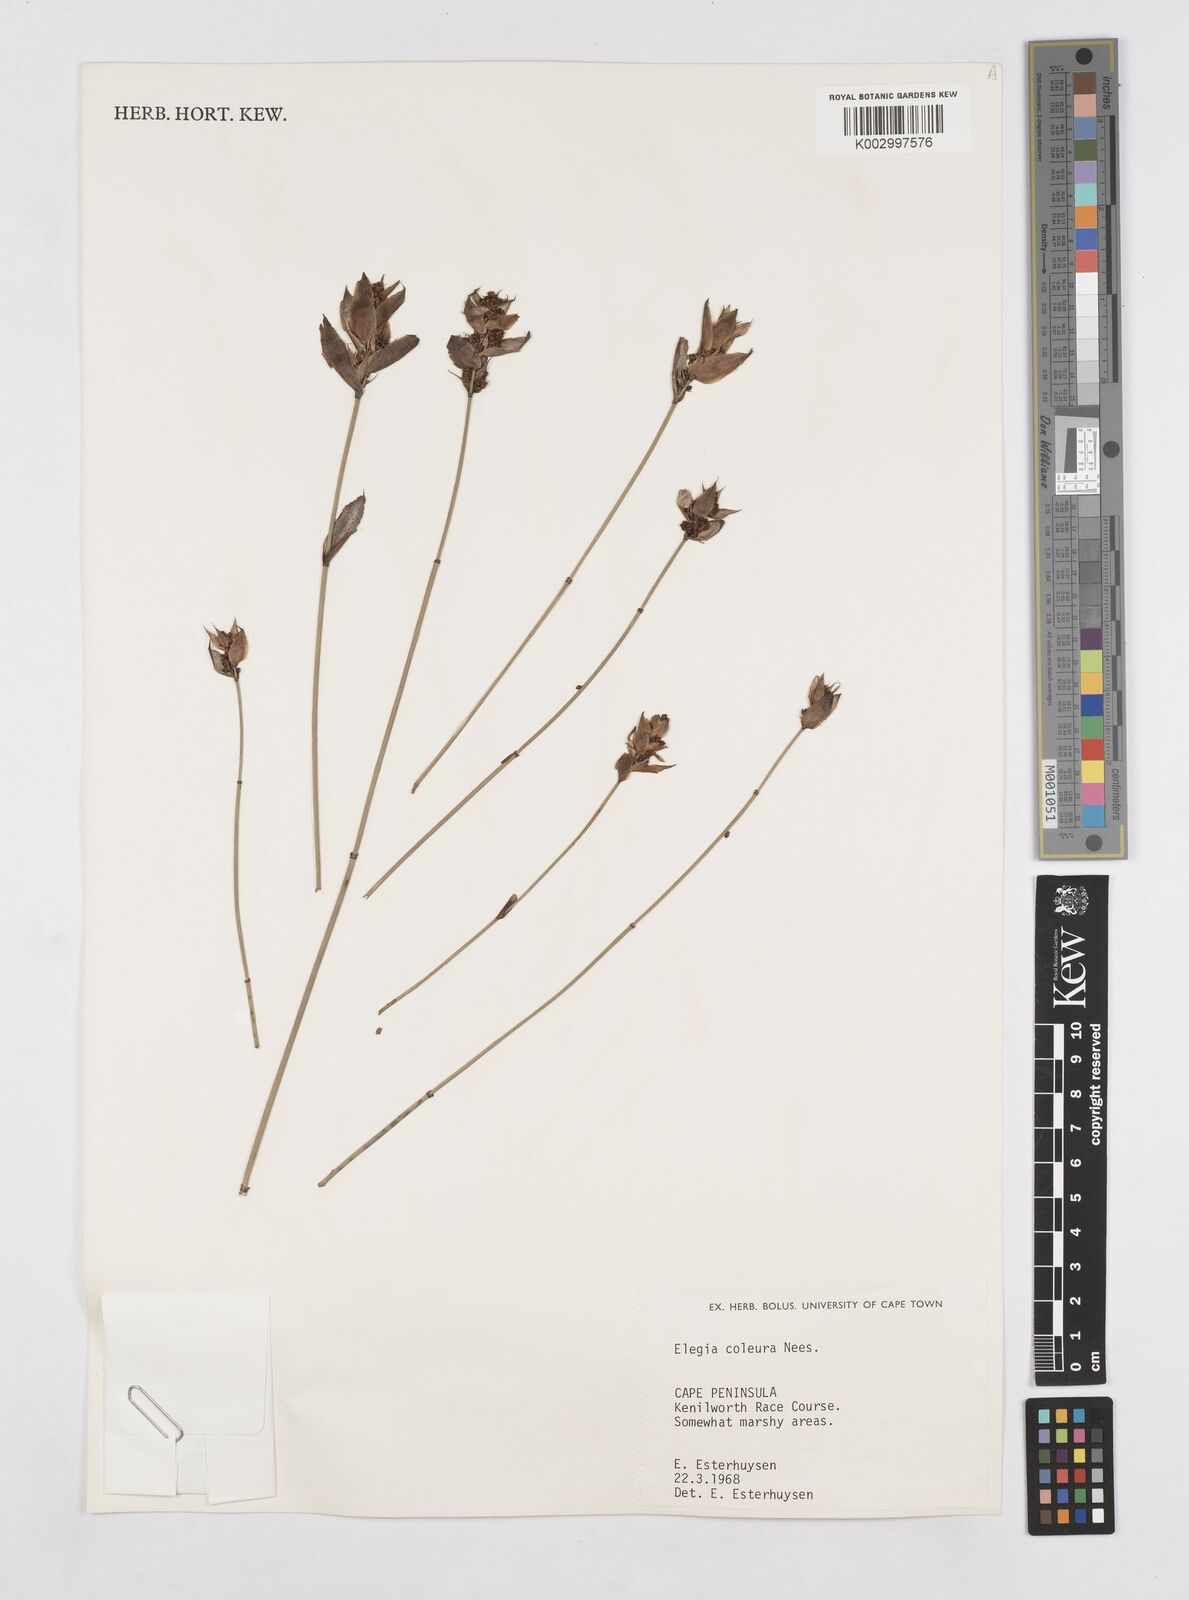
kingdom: Plantae
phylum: Tracheophyta
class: Liliopsida
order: Poales
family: Restionaceae
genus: Elegia
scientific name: Elegia coleura
